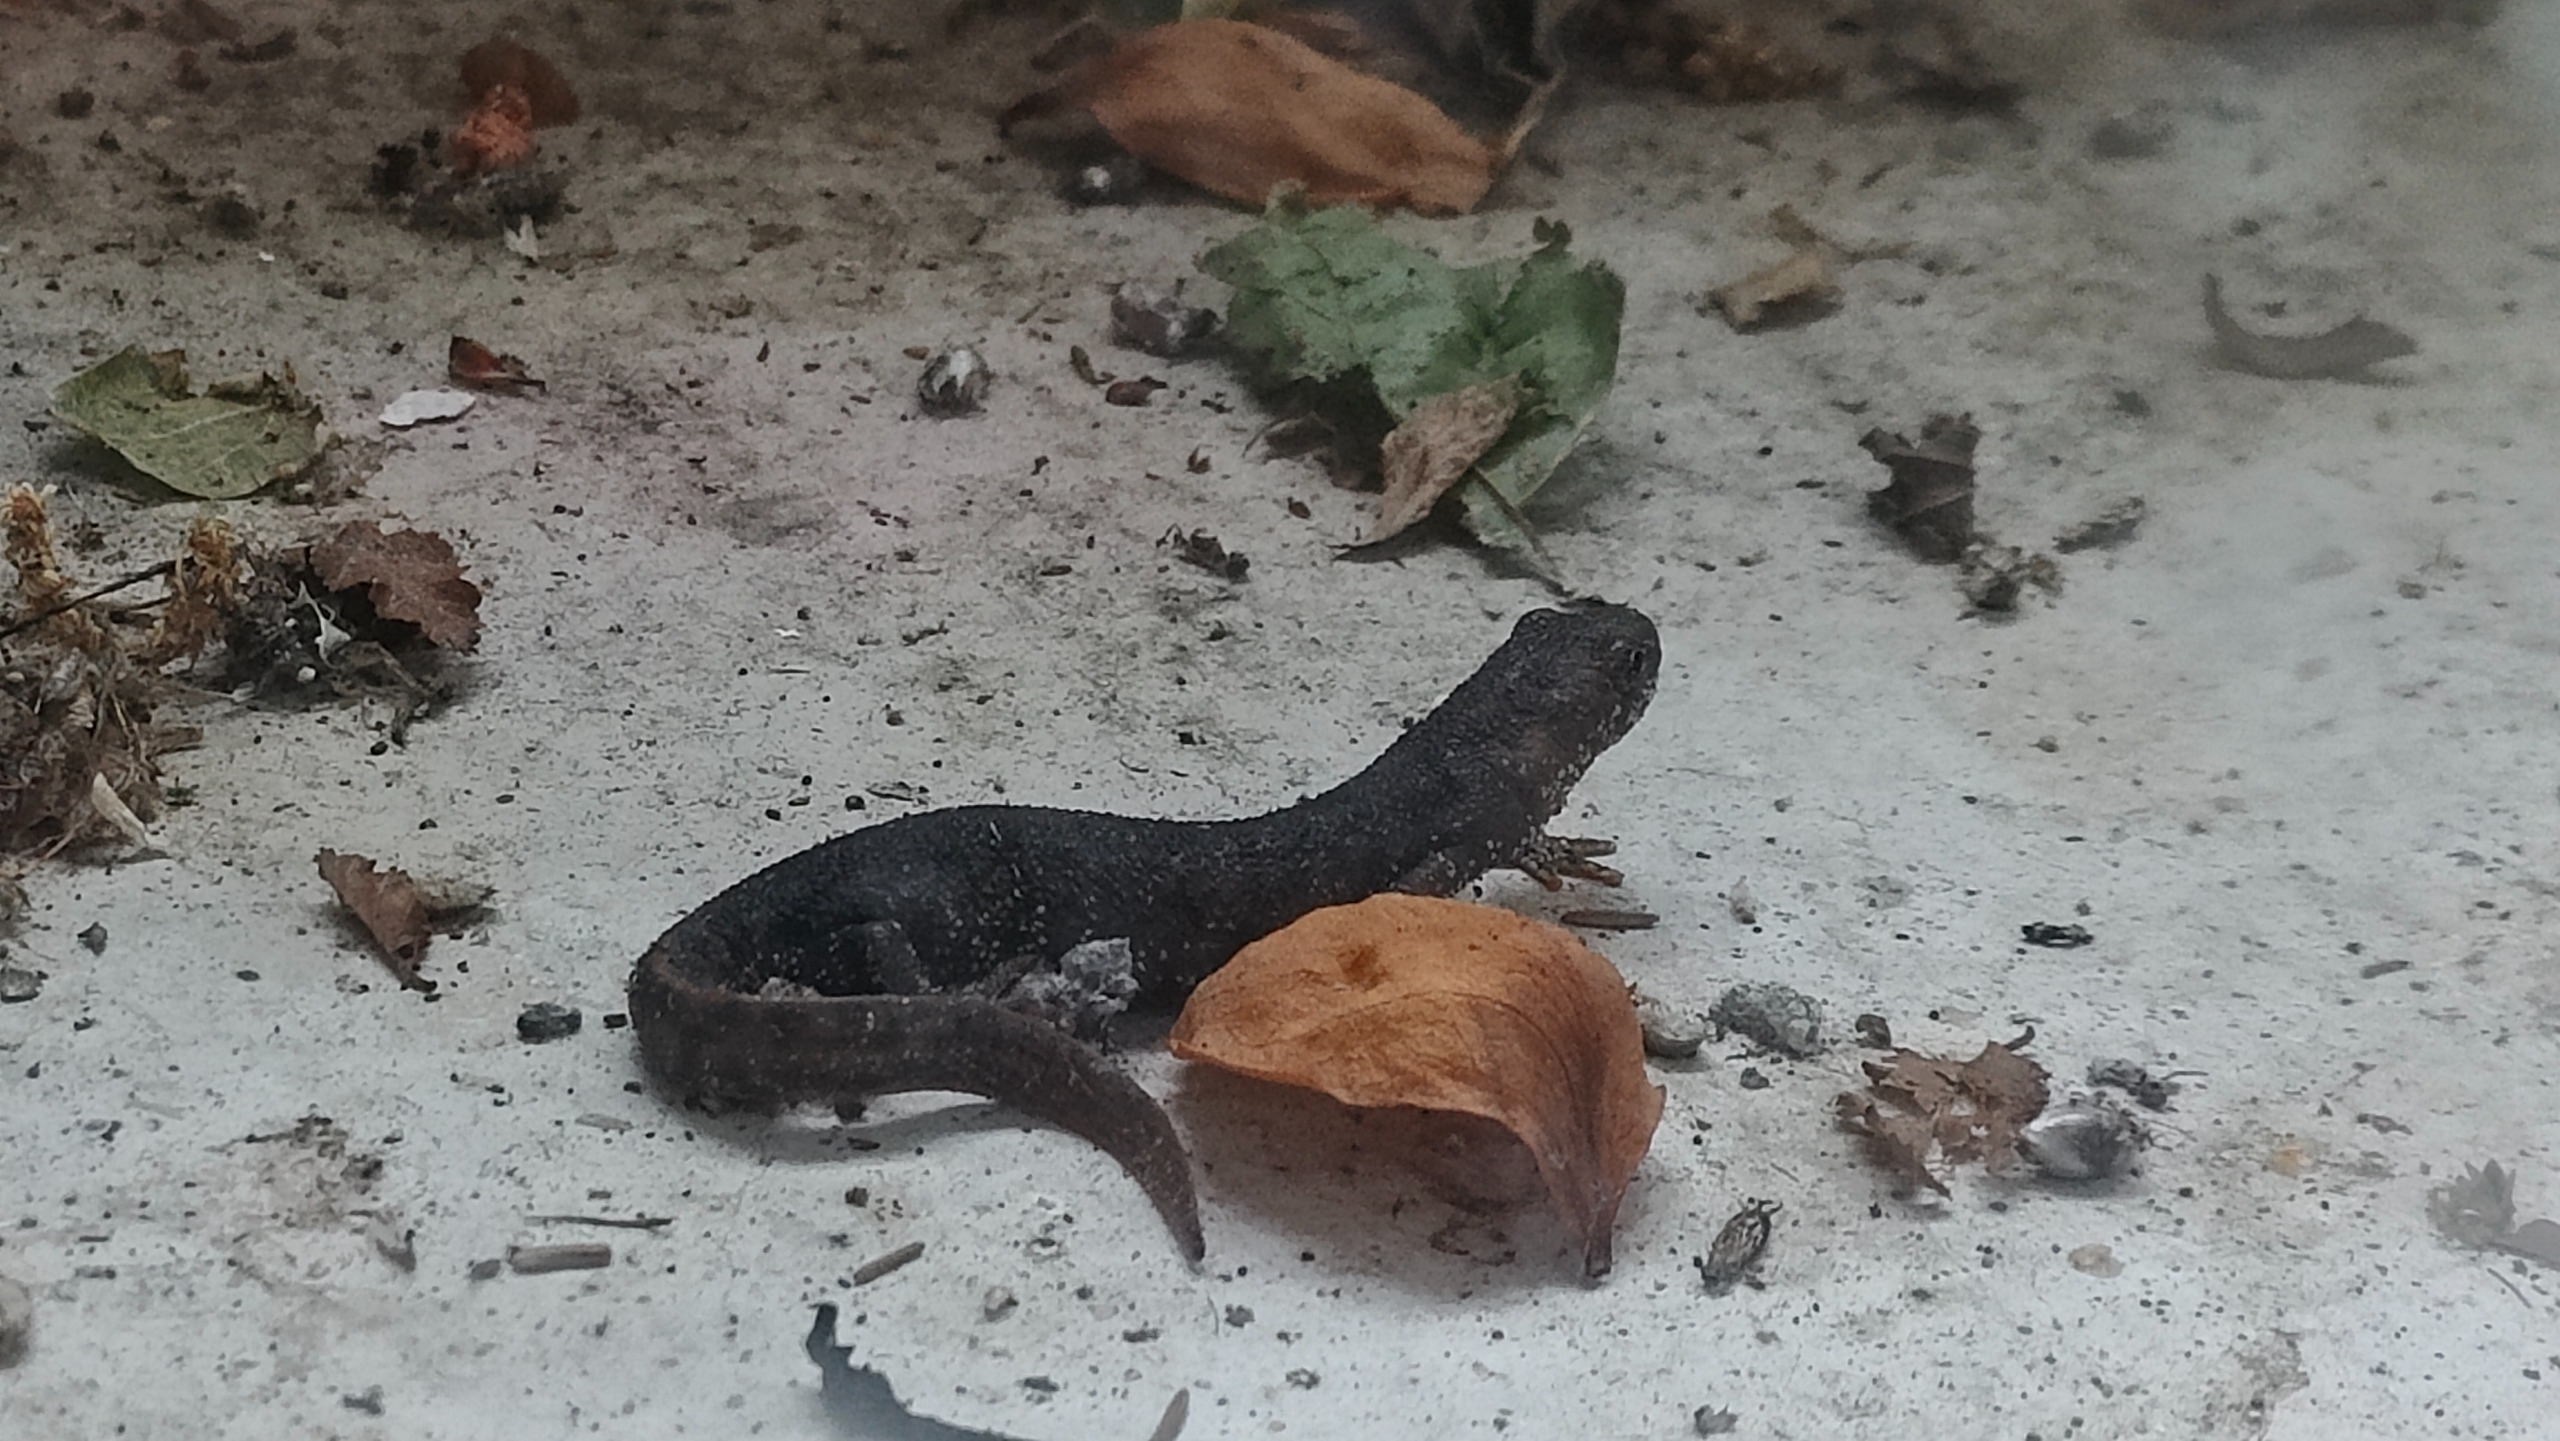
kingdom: Animalia
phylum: Chordata
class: Amphibia
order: Caudata
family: Salamandridae
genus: Triturus
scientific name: Triturus cristatus
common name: Stor vandsalamander
